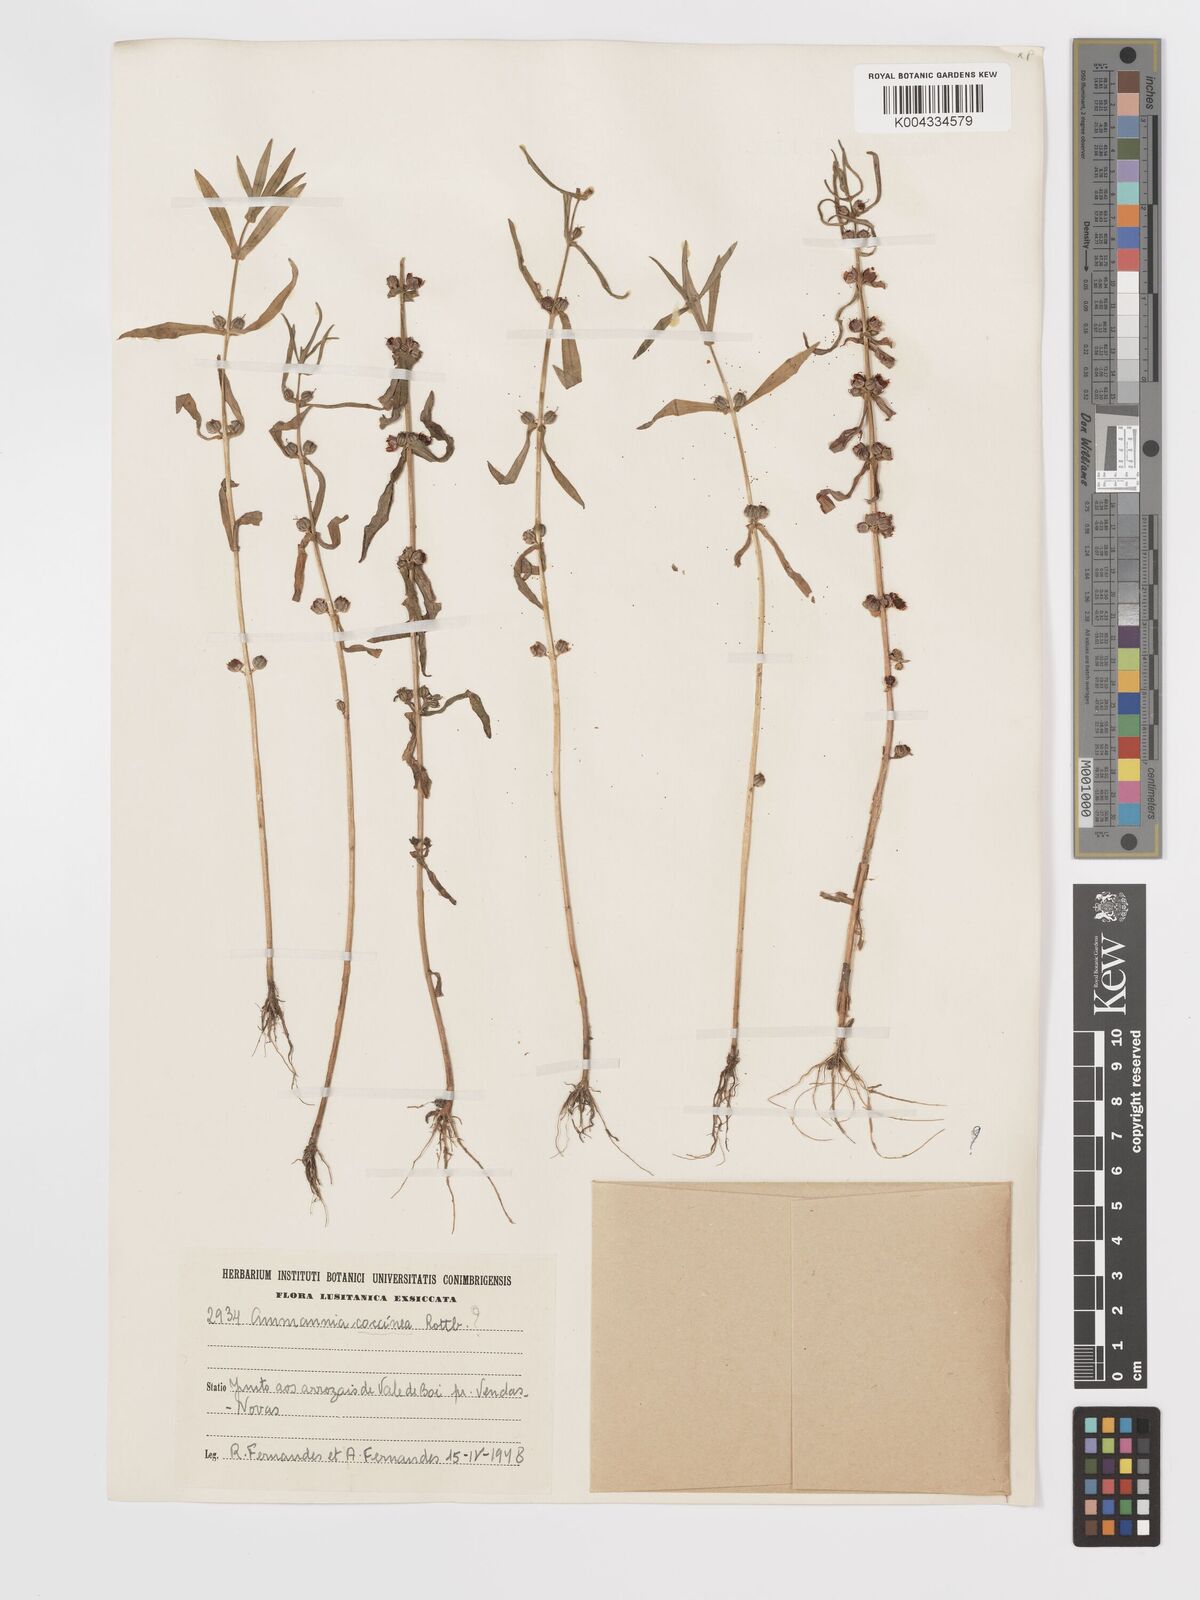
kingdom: Plantae
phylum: Tracheophyta
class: Magnoliopsida
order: Myrtales
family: Lythraceae
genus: Ammannia
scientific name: Ammannia coccinea
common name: Valley redstem
